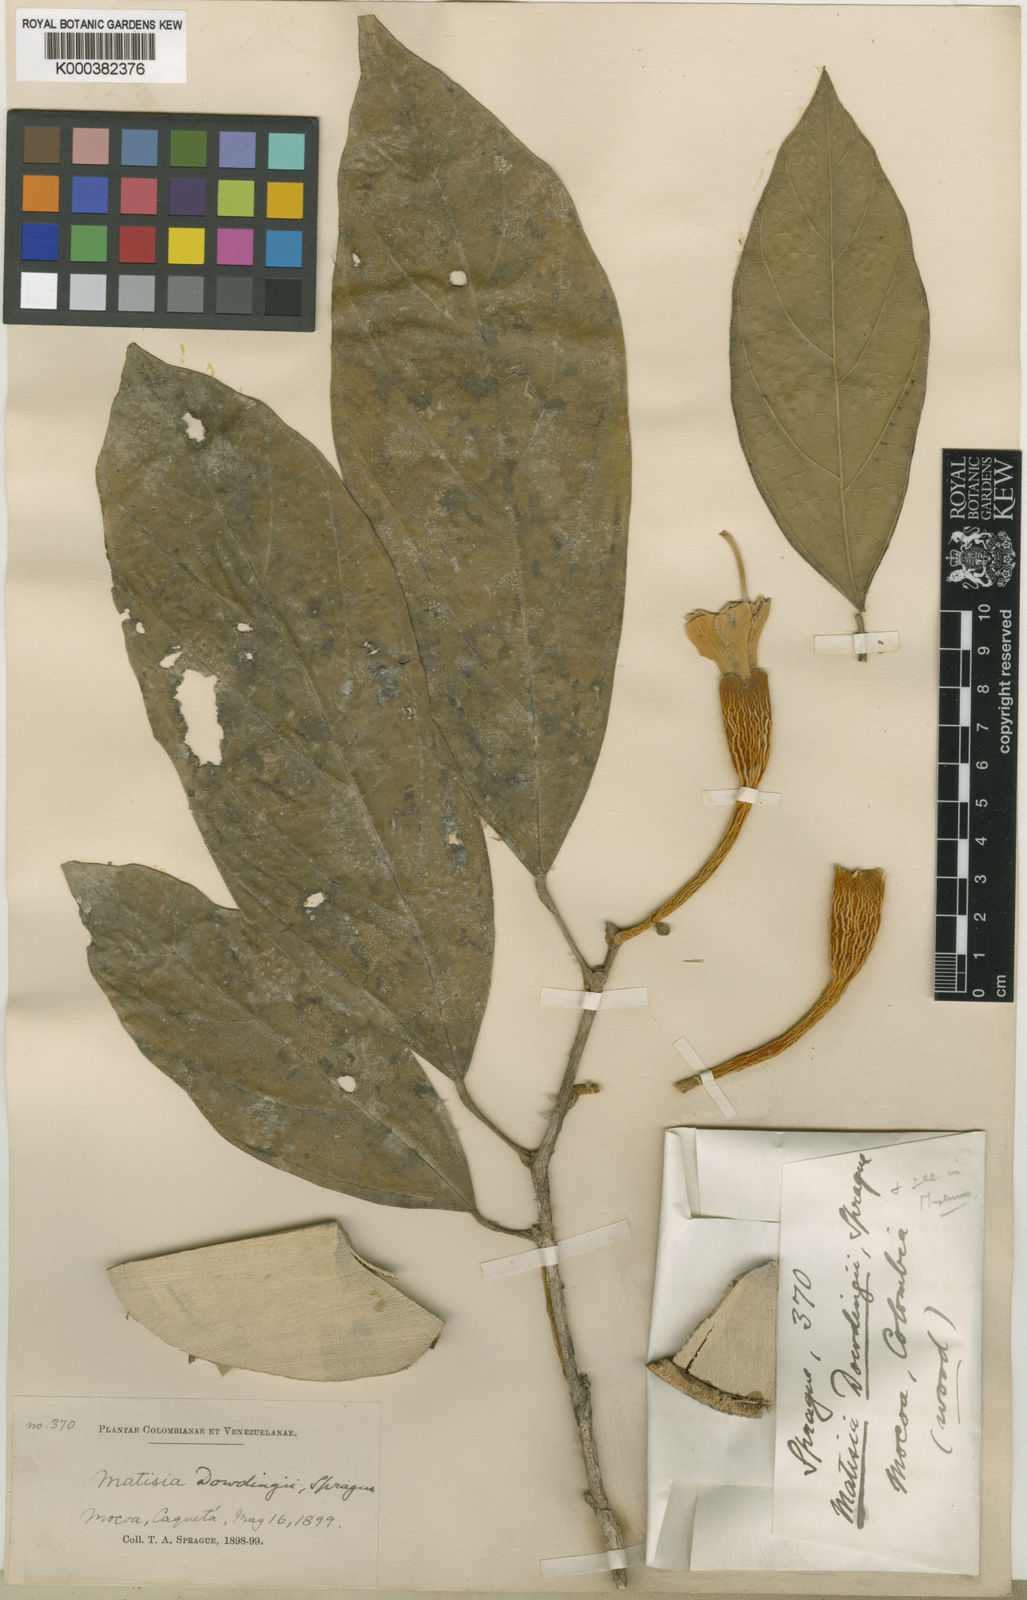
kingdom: Plantae
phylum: Tracheophyta
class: Magnoliopsida
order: Malvales
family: Malvaceae
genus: Matisia
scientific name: Matisia dowdingii
